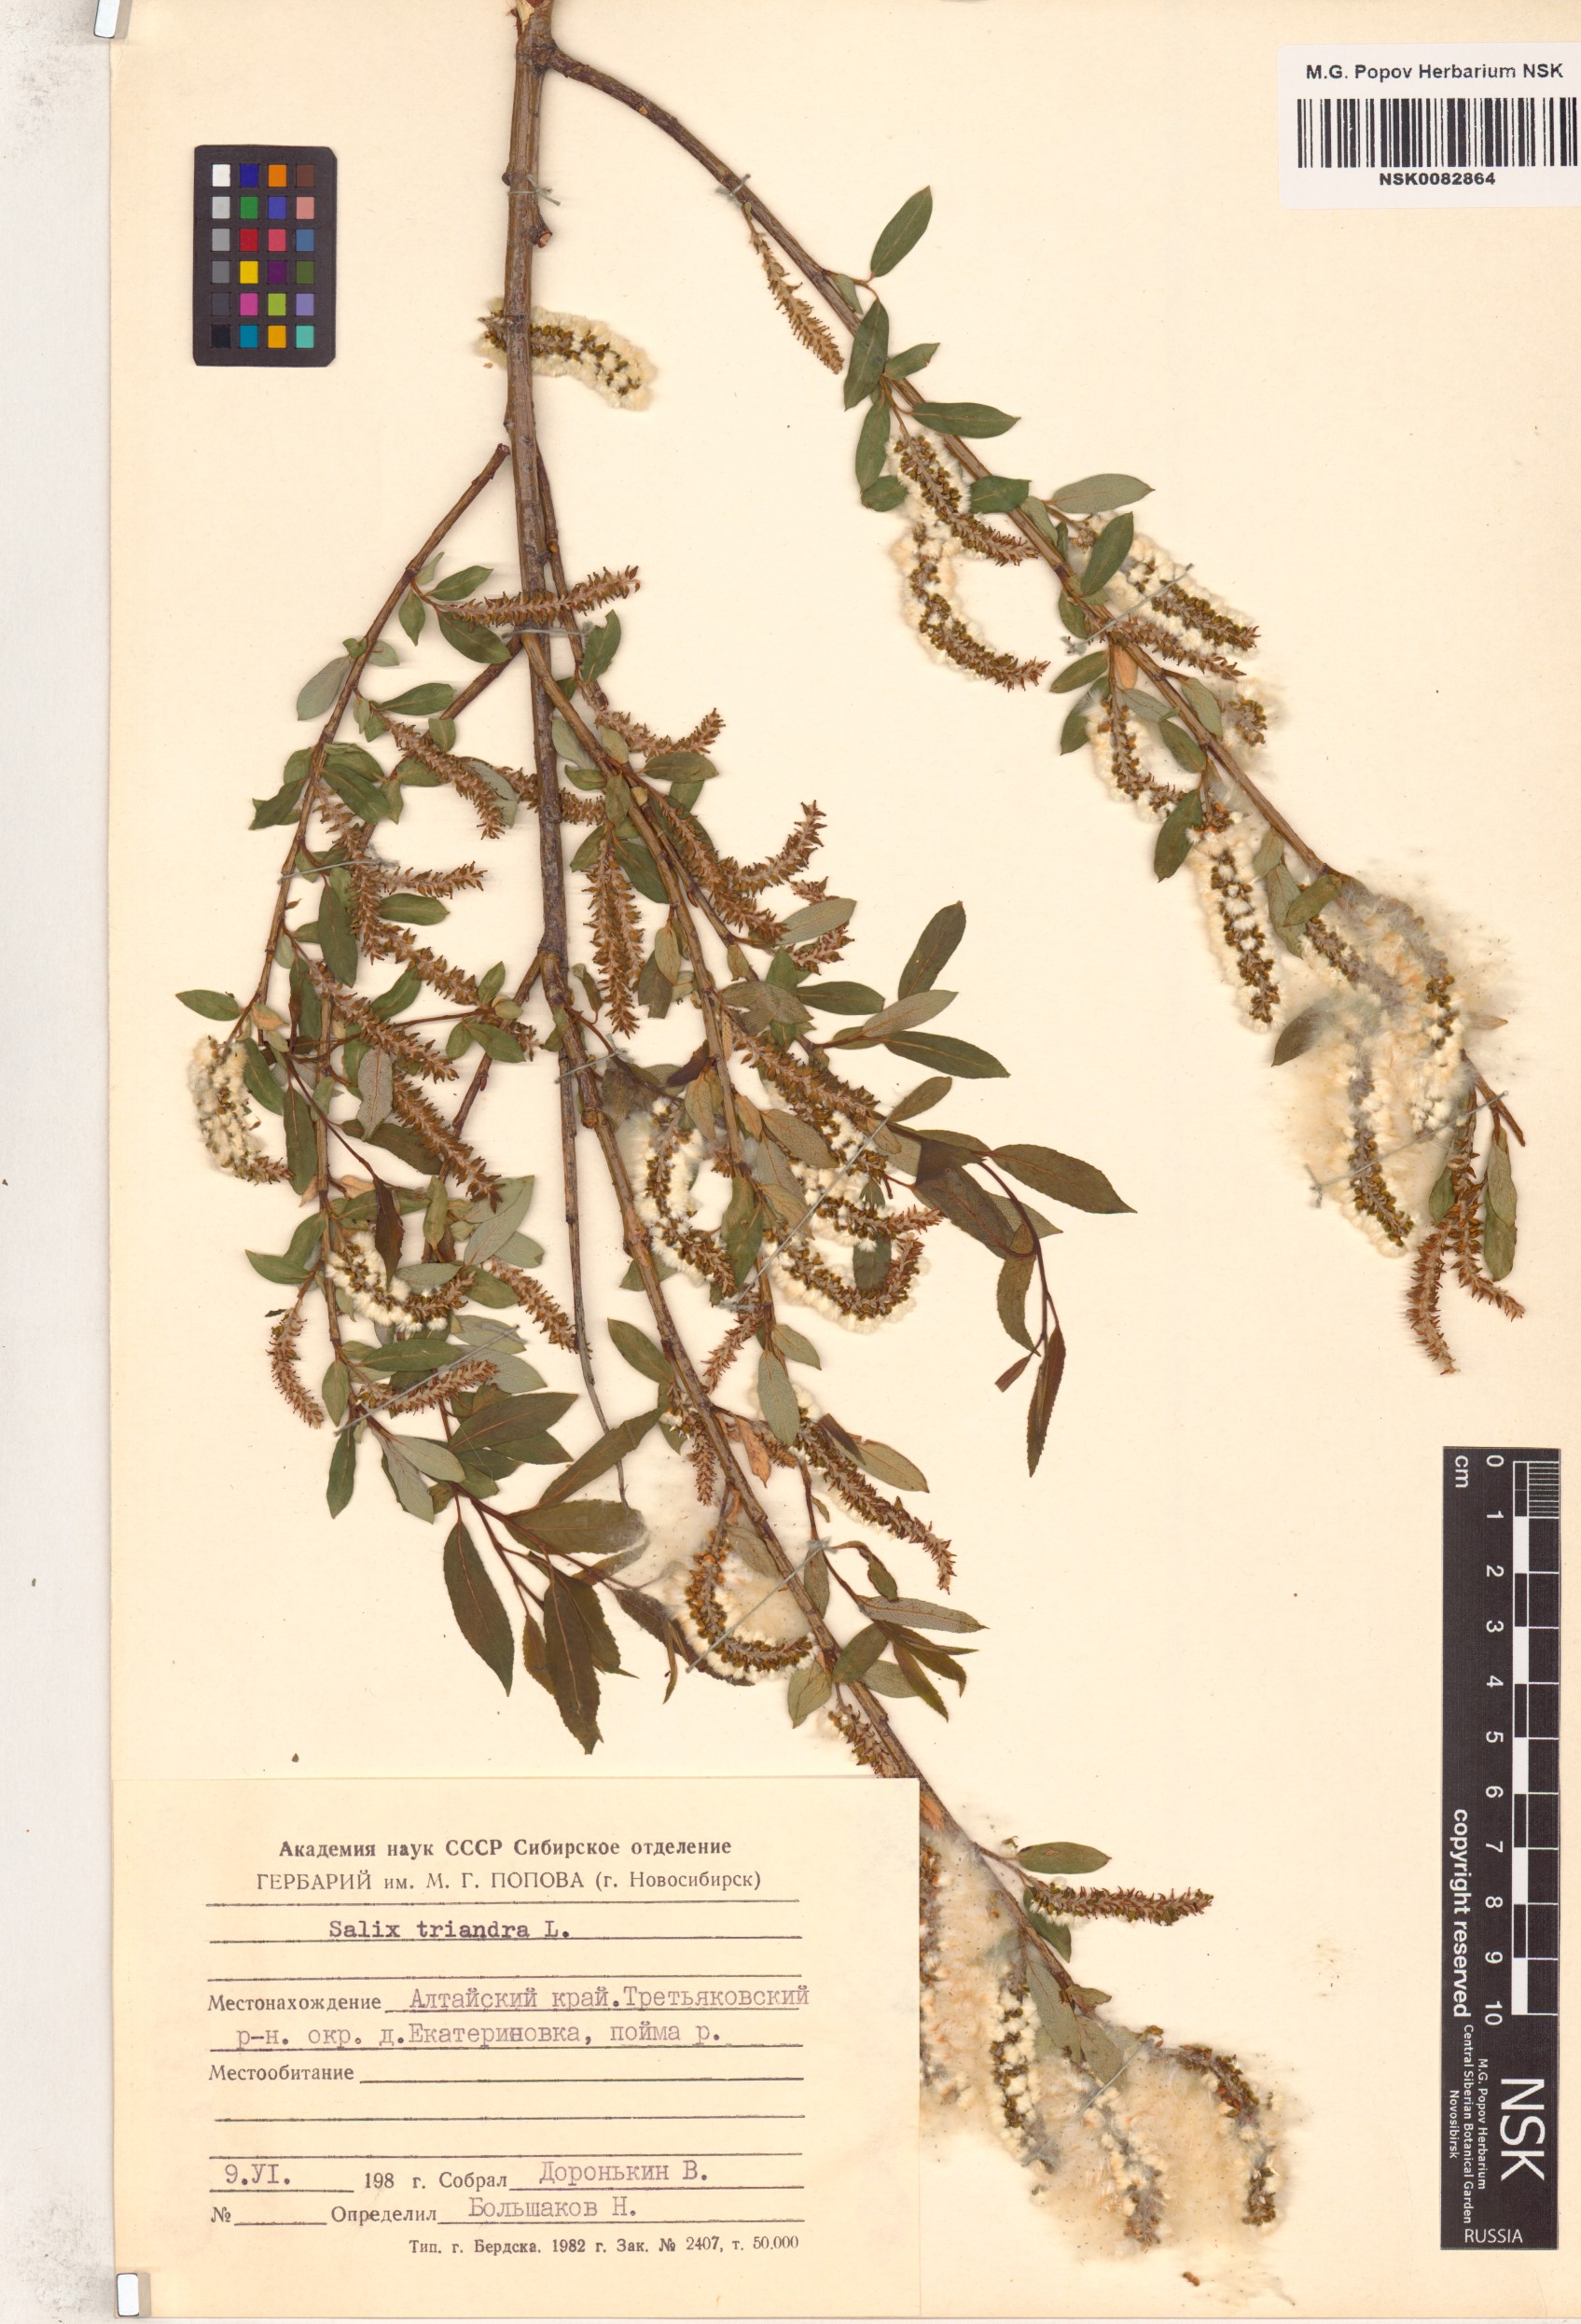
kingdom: Plantae
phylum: Tracheophyta
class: Magnoliopsida
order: Malpighiales
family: Salicaceae
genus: Salix
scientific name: Salix triandra
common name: Almond willow
